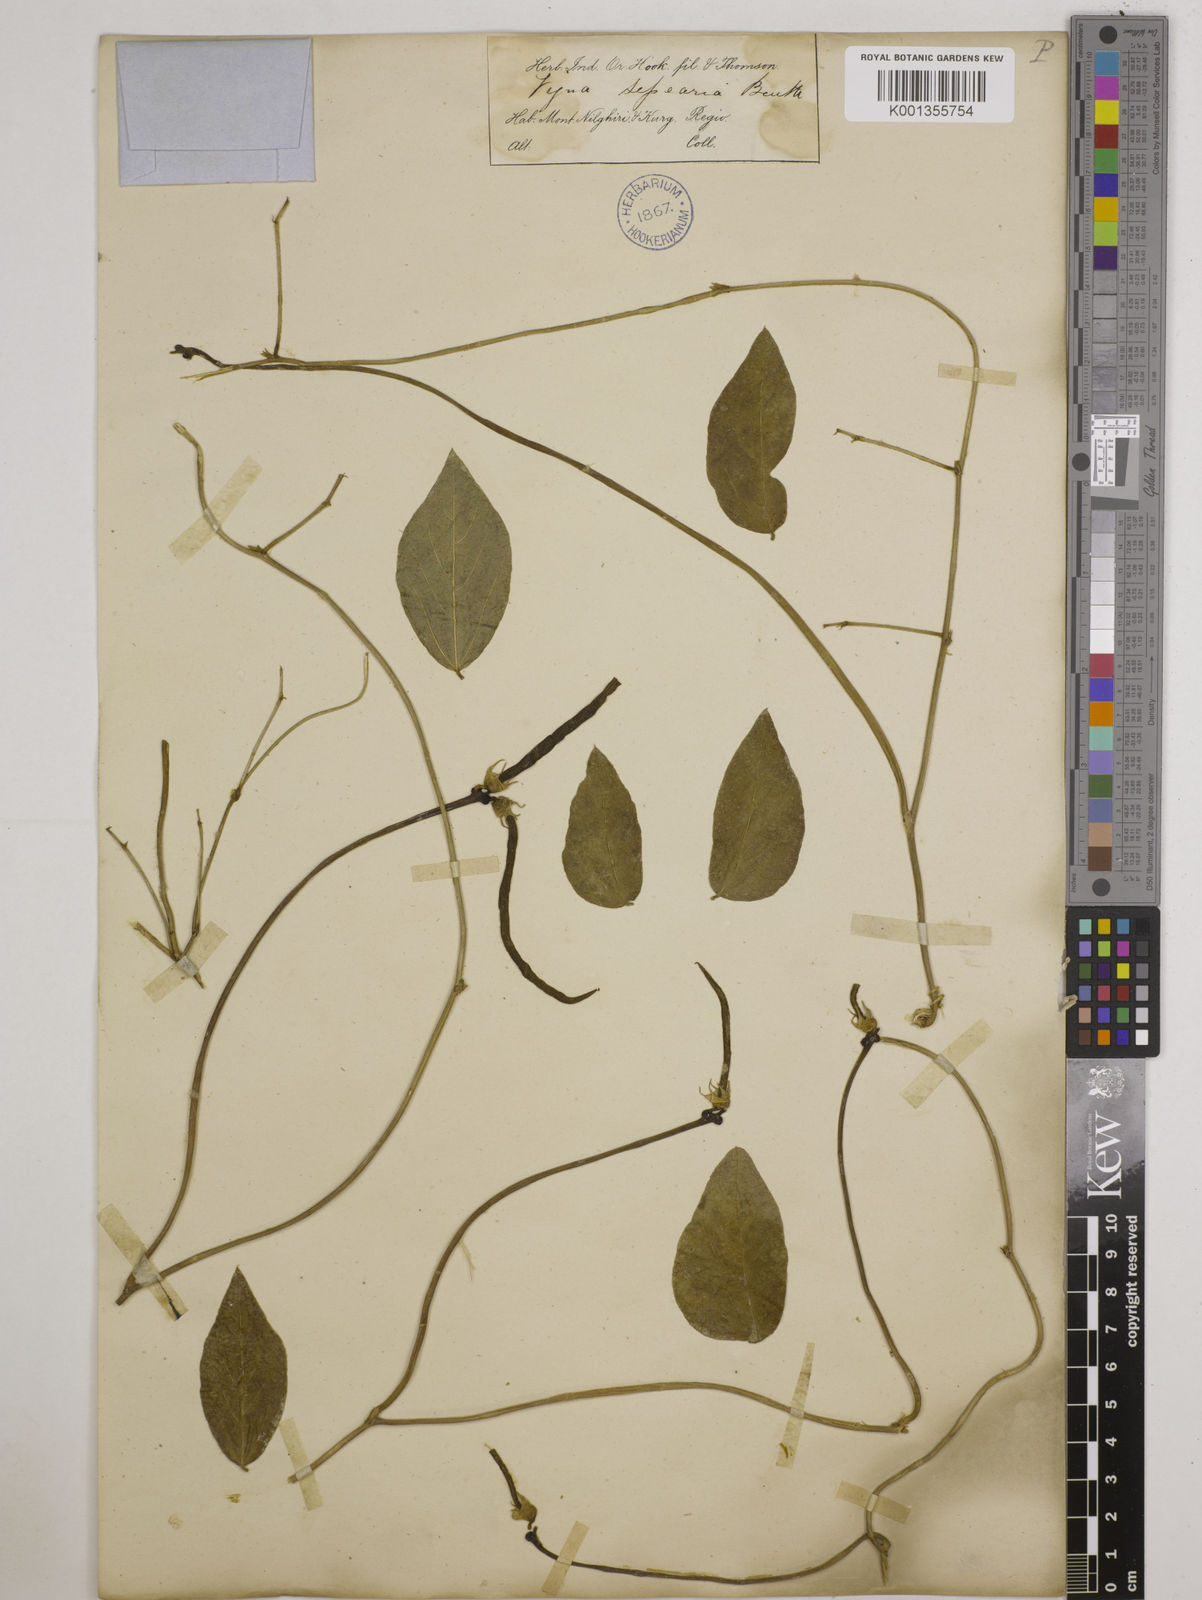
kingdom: Plantae
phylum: Tracheophyta
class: Magnoliopsida
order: Fabales
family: Fabaceae
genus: Vigna
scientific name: Vigna vexillata
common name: Zombi pea
